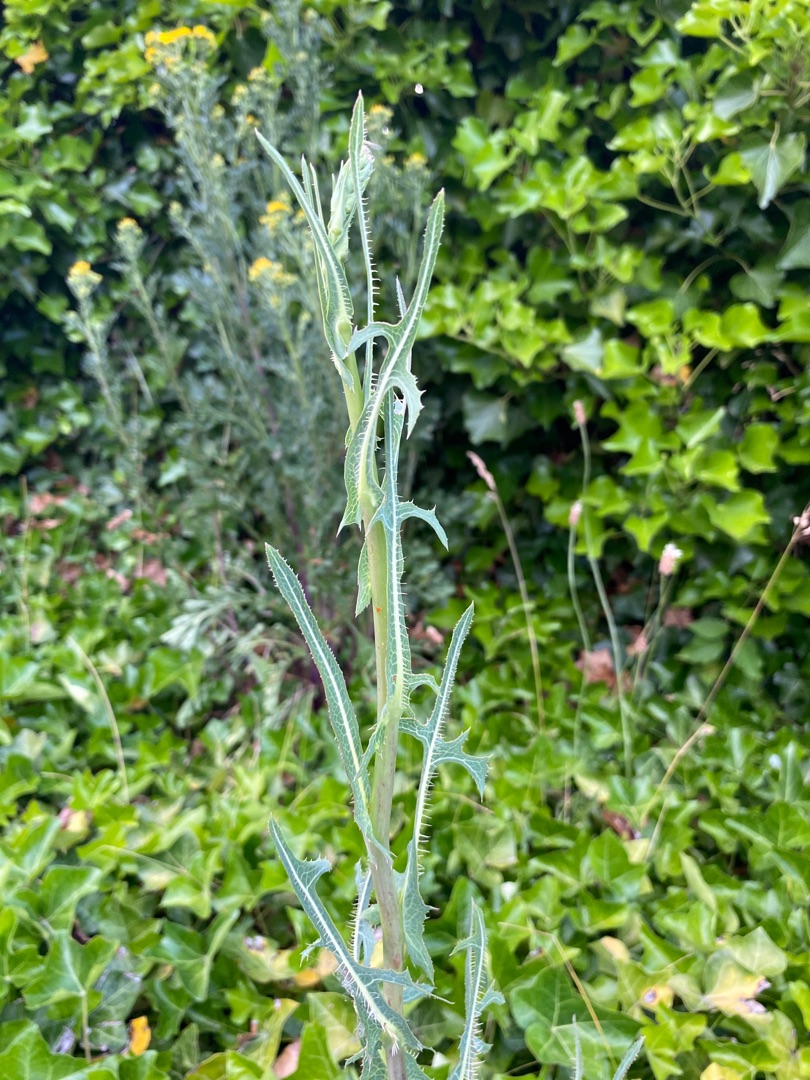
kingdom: Plantae
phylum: Tracheophyta
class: Magnoliopsida
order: Asterales
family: Asteraceae
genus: Lactuca
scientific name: Lactuca serriola
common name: Tornet salat
